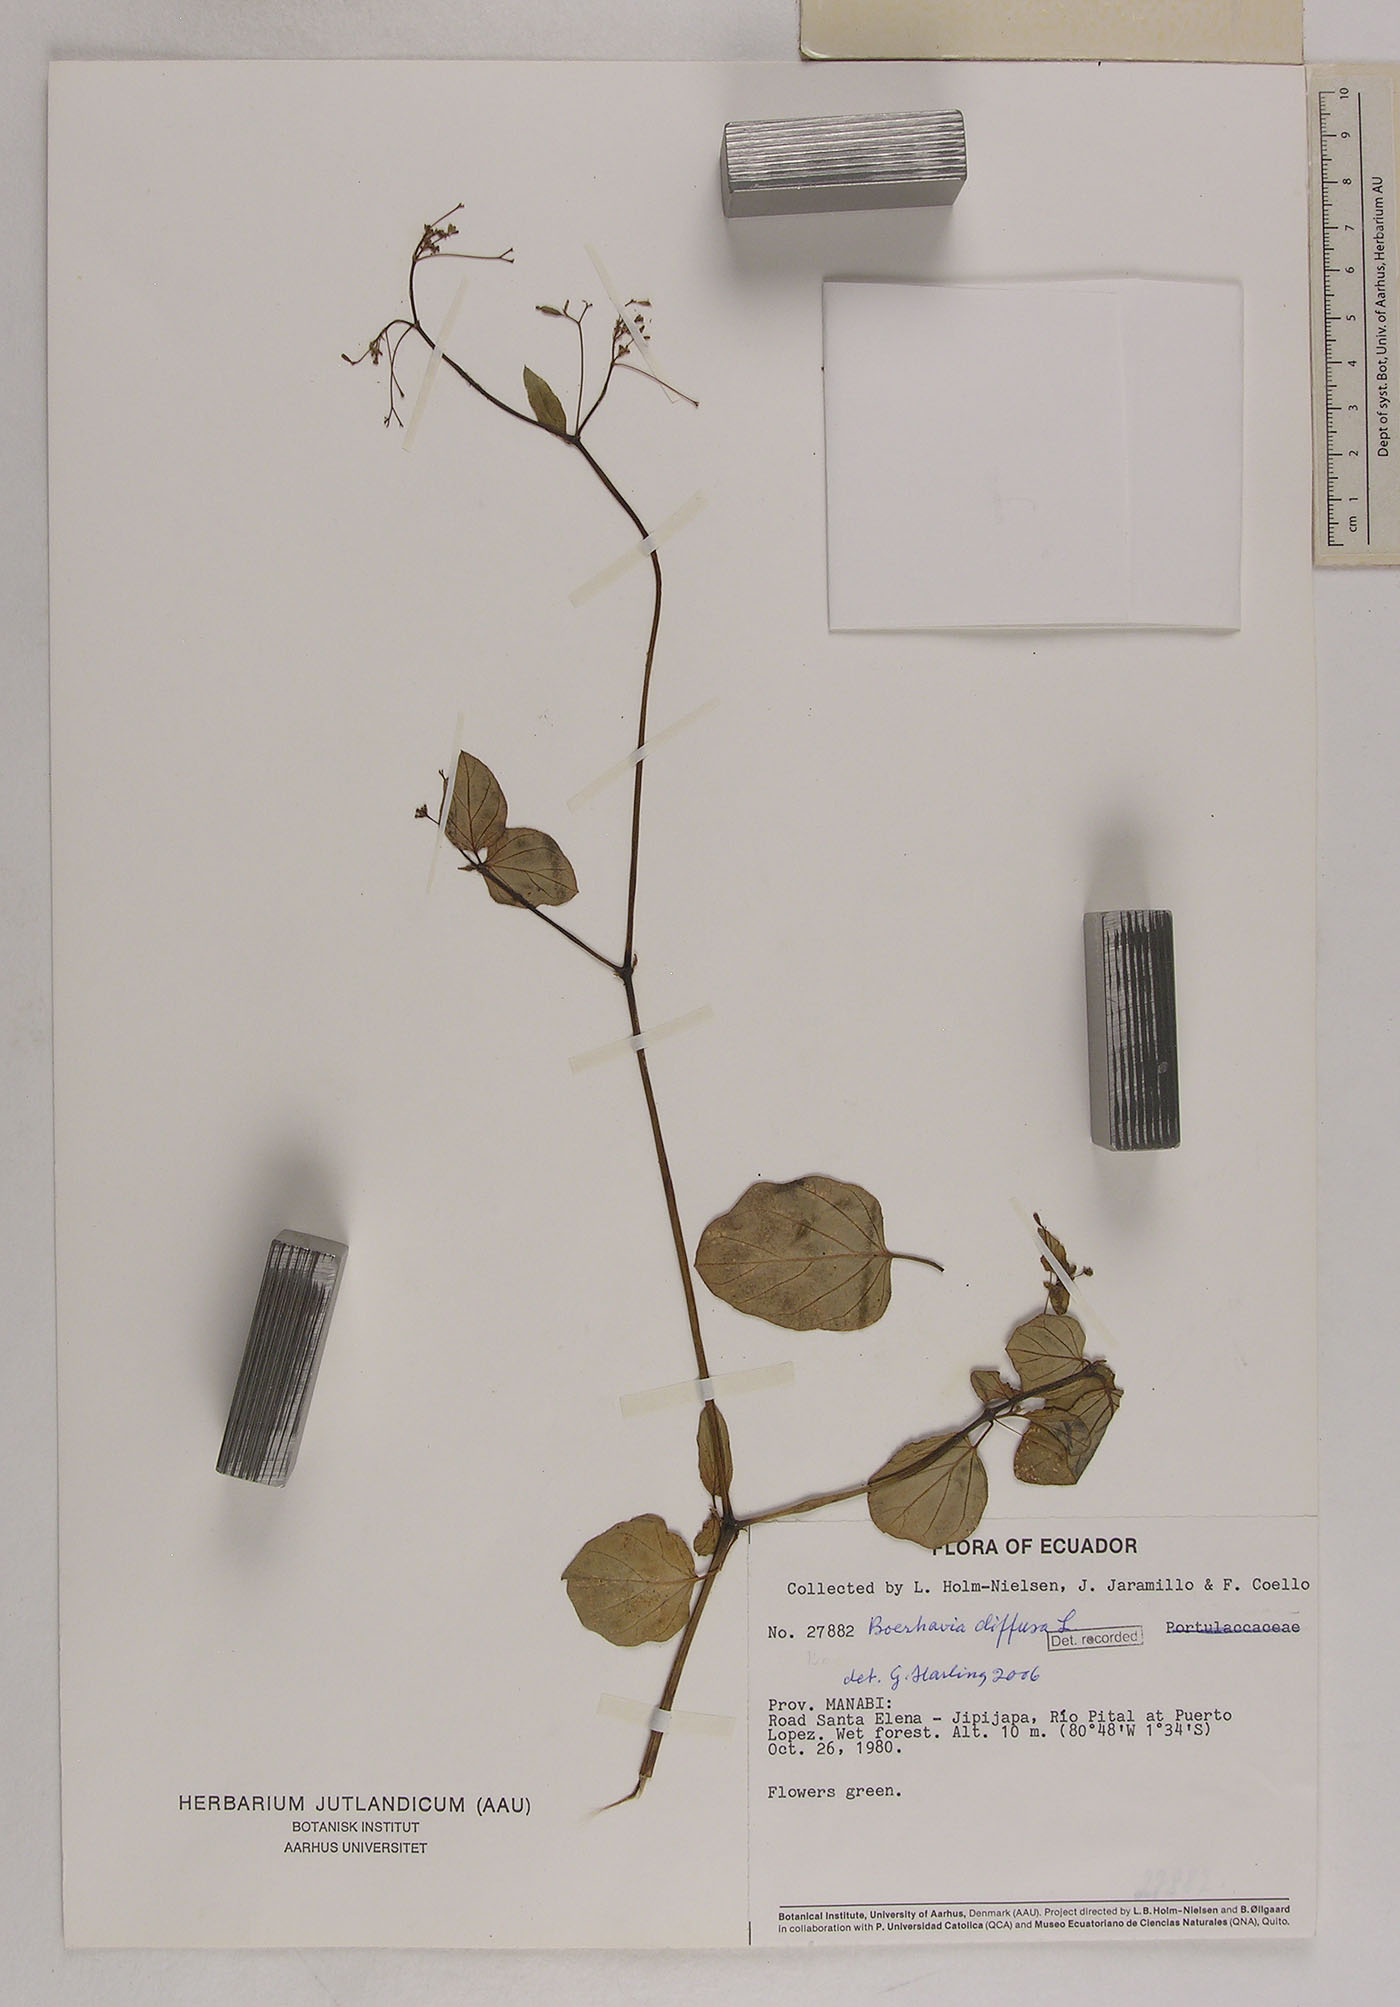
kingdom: Plantae
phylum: Tracheophyta
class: Magnoliopsida
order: Caryophyllales
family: Nyctaginaceae
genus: Boerhavia
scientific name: Boerhavia diffusa
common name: Red spiderling
